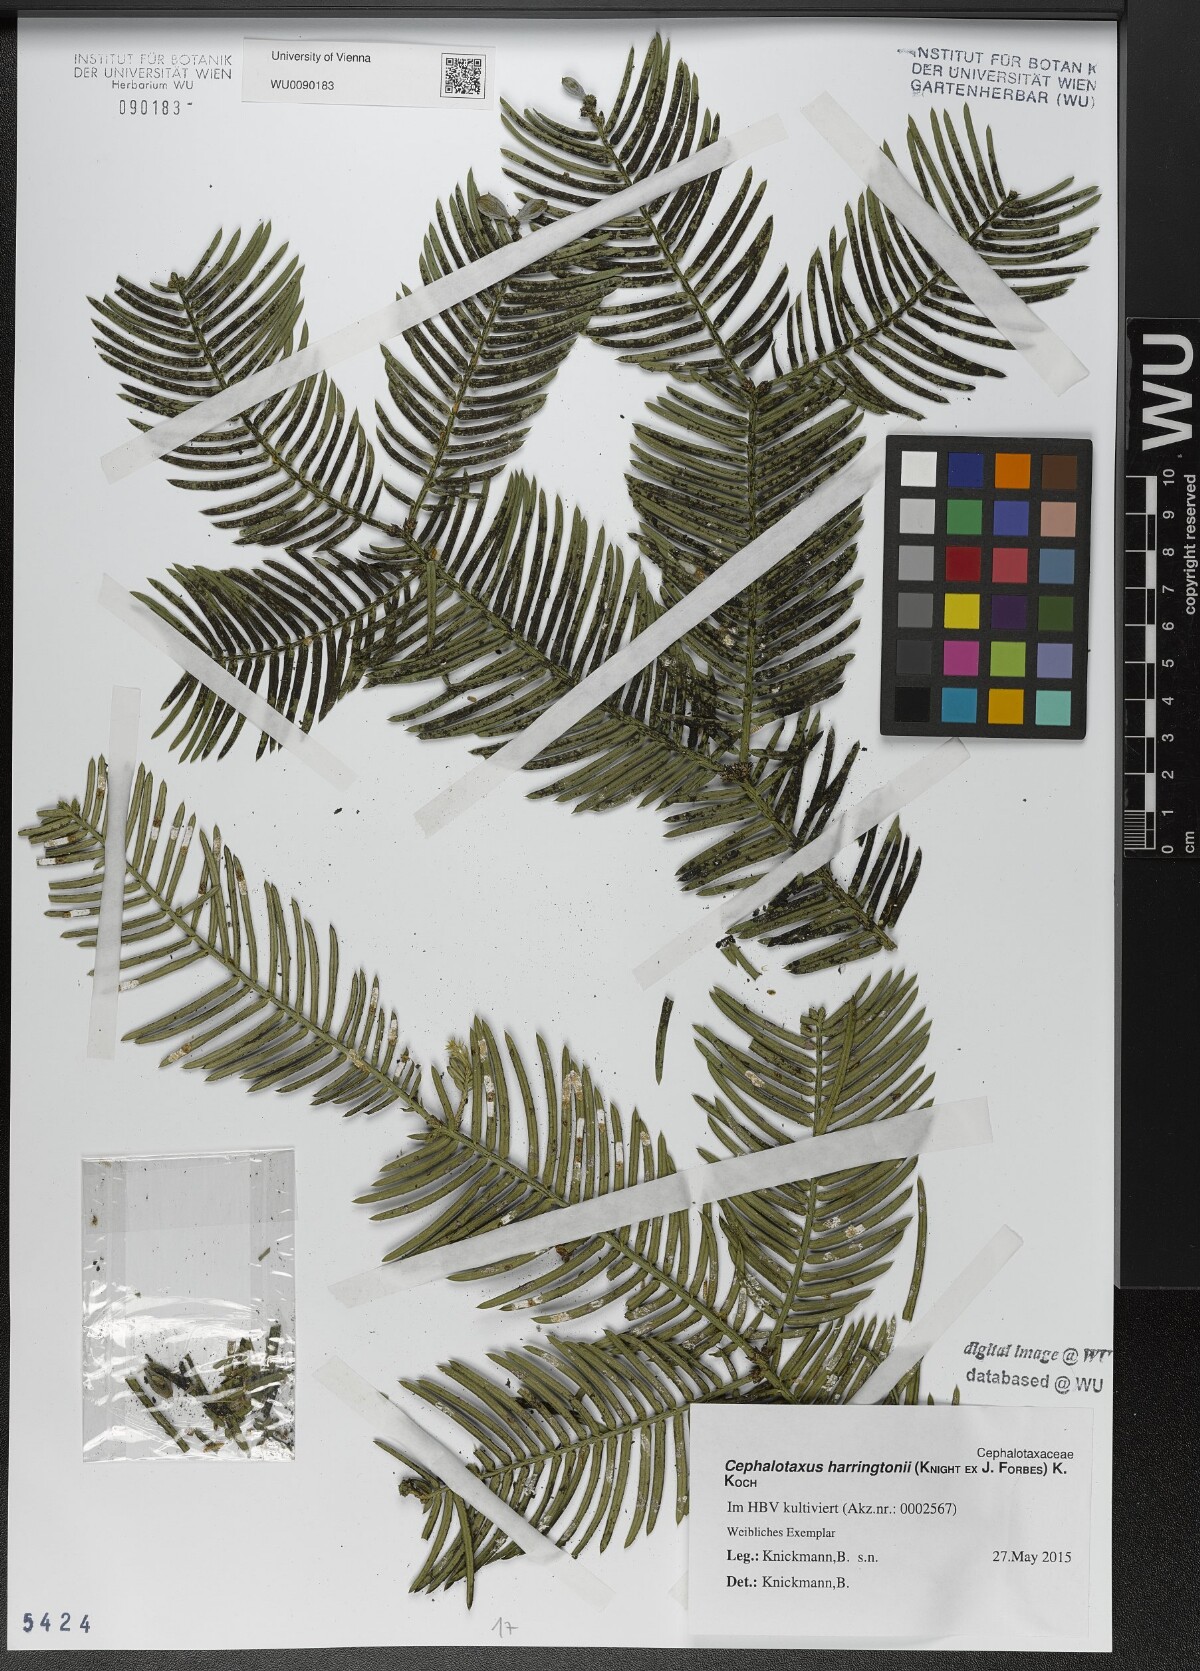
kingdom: Plantae
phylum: Tracheophyta
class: Pinopsida
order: Pinales
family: Cephalotaxaceae
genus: Cephalotaxus
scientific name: Cephalotaxus harringtonia
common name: Japanese plum-yew
